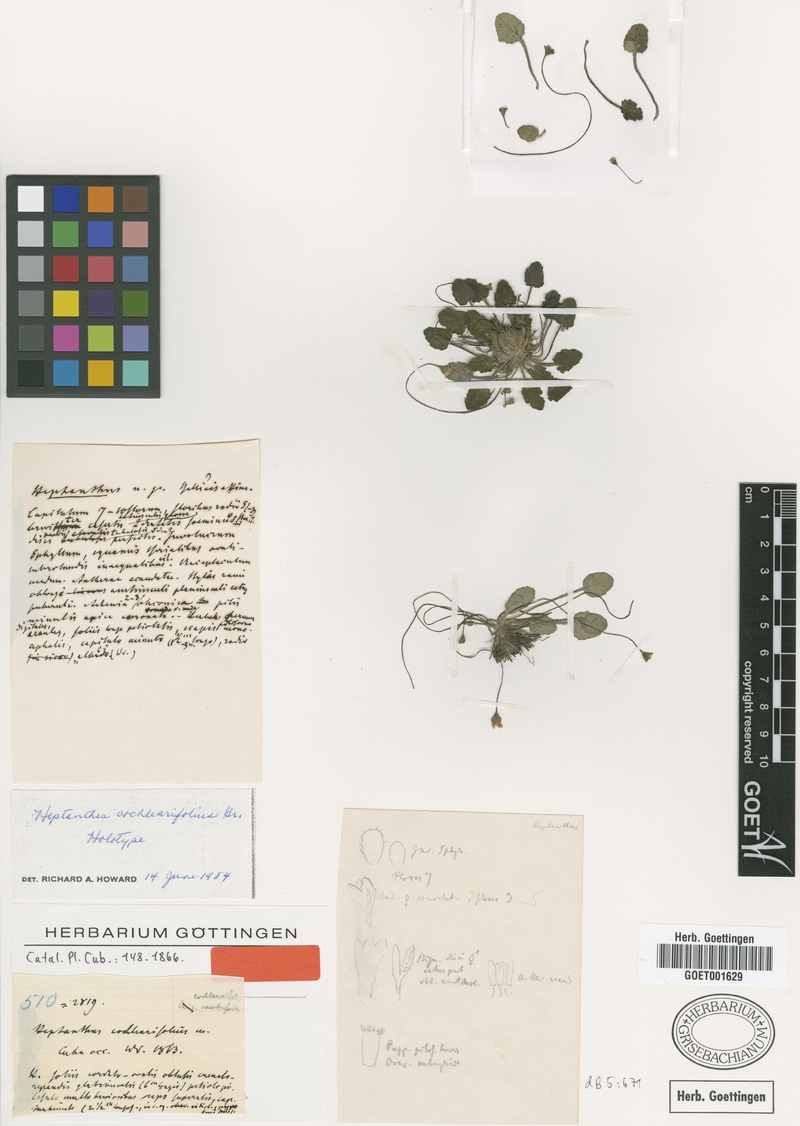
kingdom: Plantae
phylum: Tracheophyta
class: Magnoliopsida
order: Asterales
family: Asteraceae
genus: Heptanthus
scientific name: Heptanthus cochlearifolius
